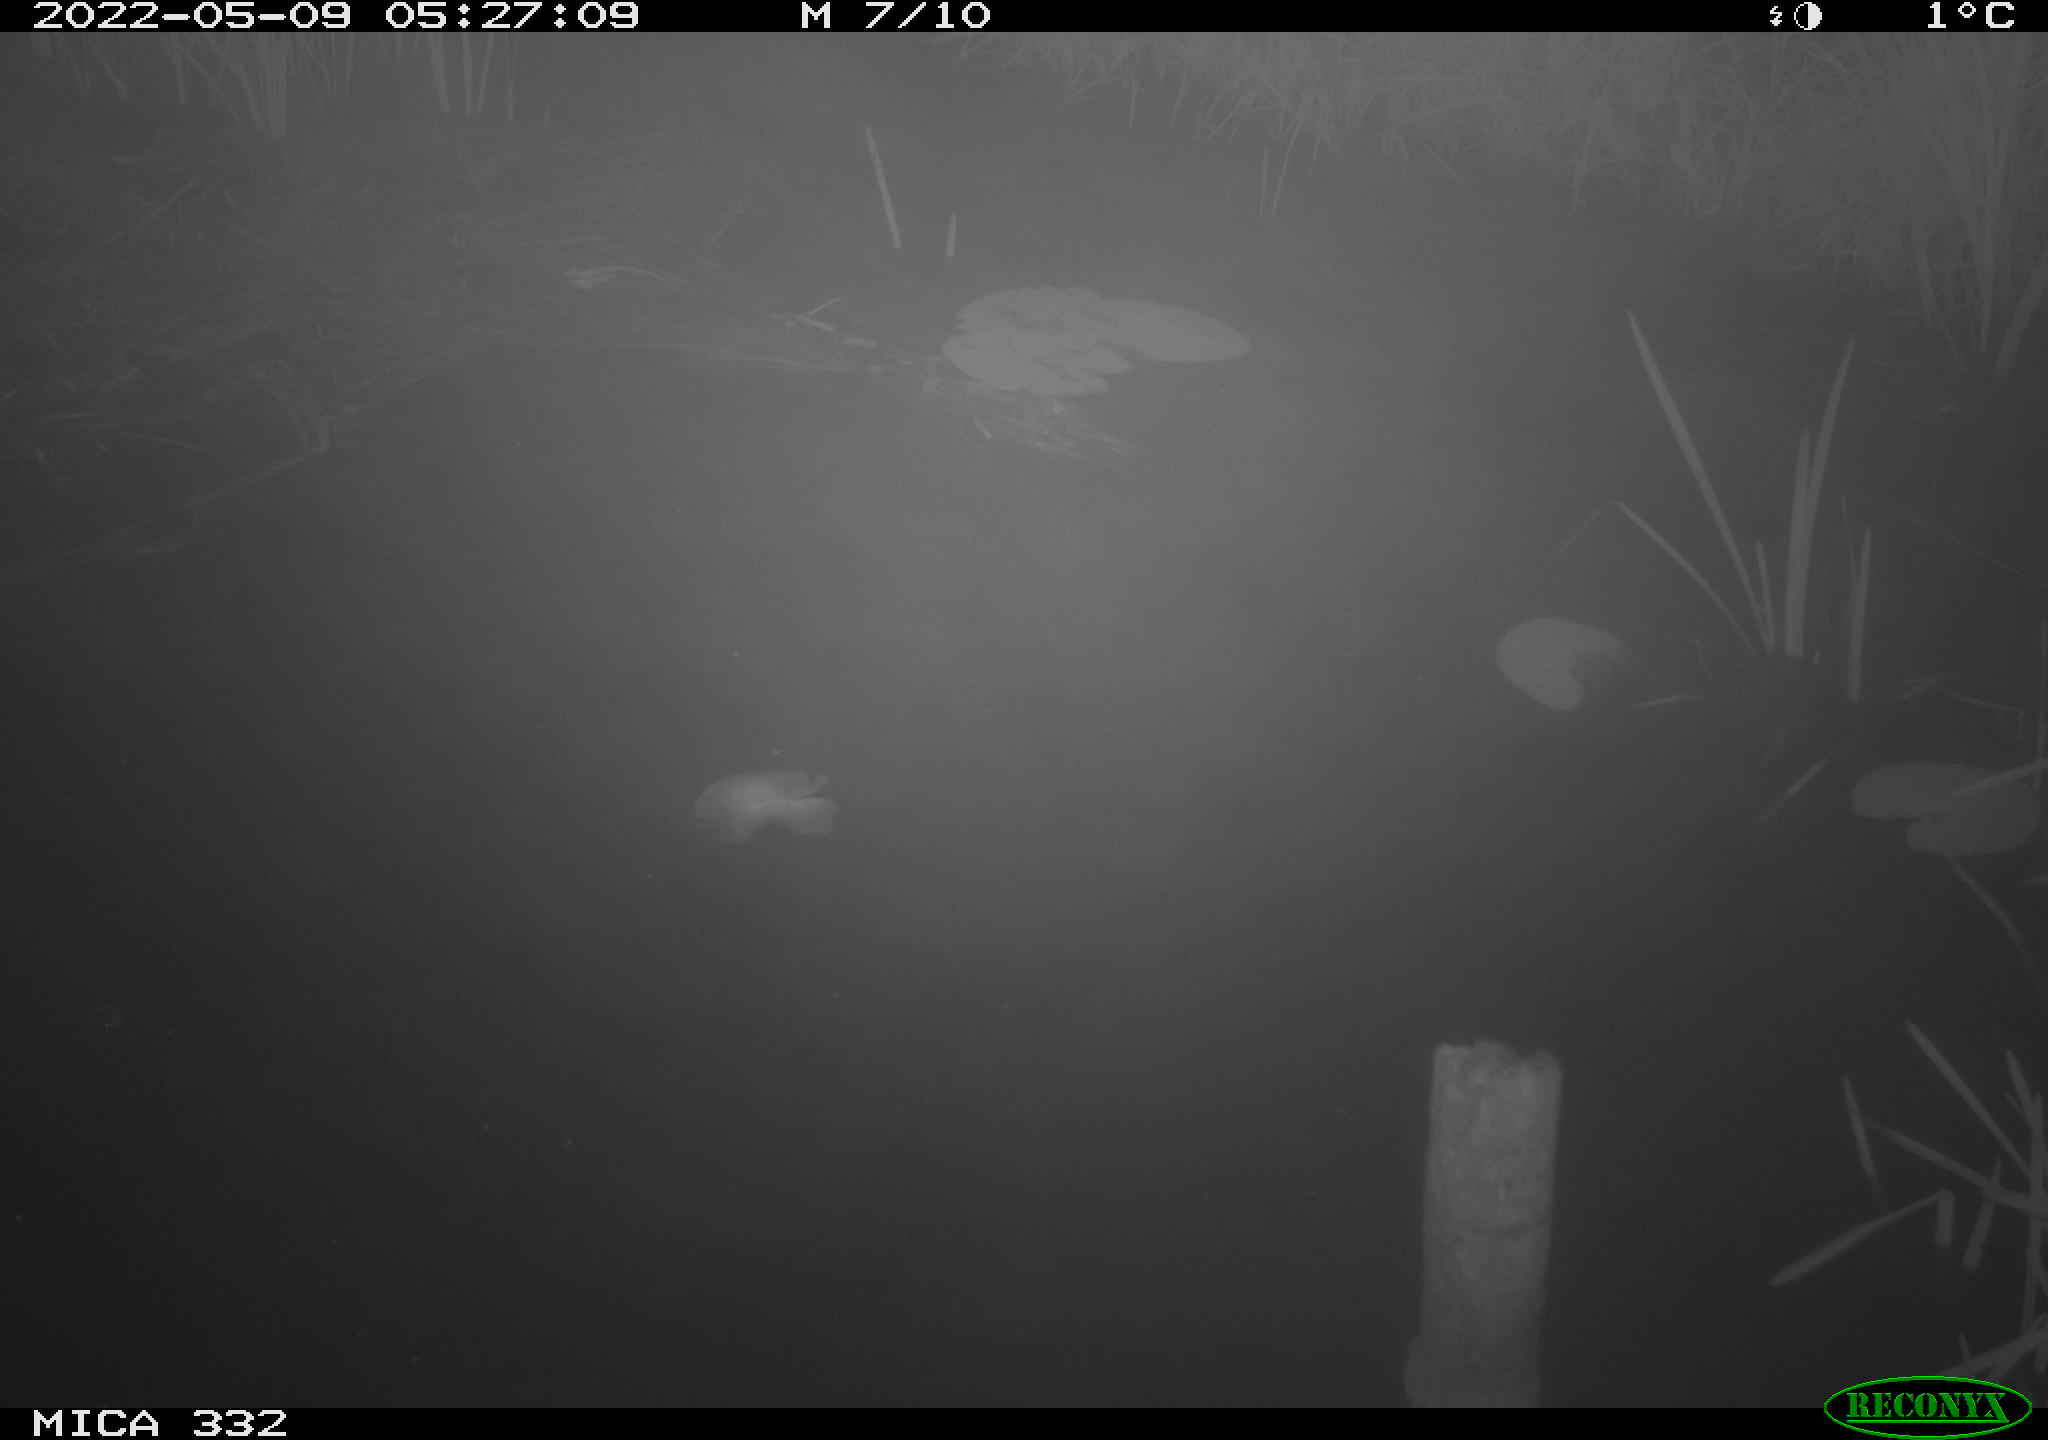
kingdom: Animalia
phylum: Chordata
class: Aves
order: Anseriformes
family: Anatidae
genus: Anas
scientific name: Anas platyrhynchos
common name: Mallard
